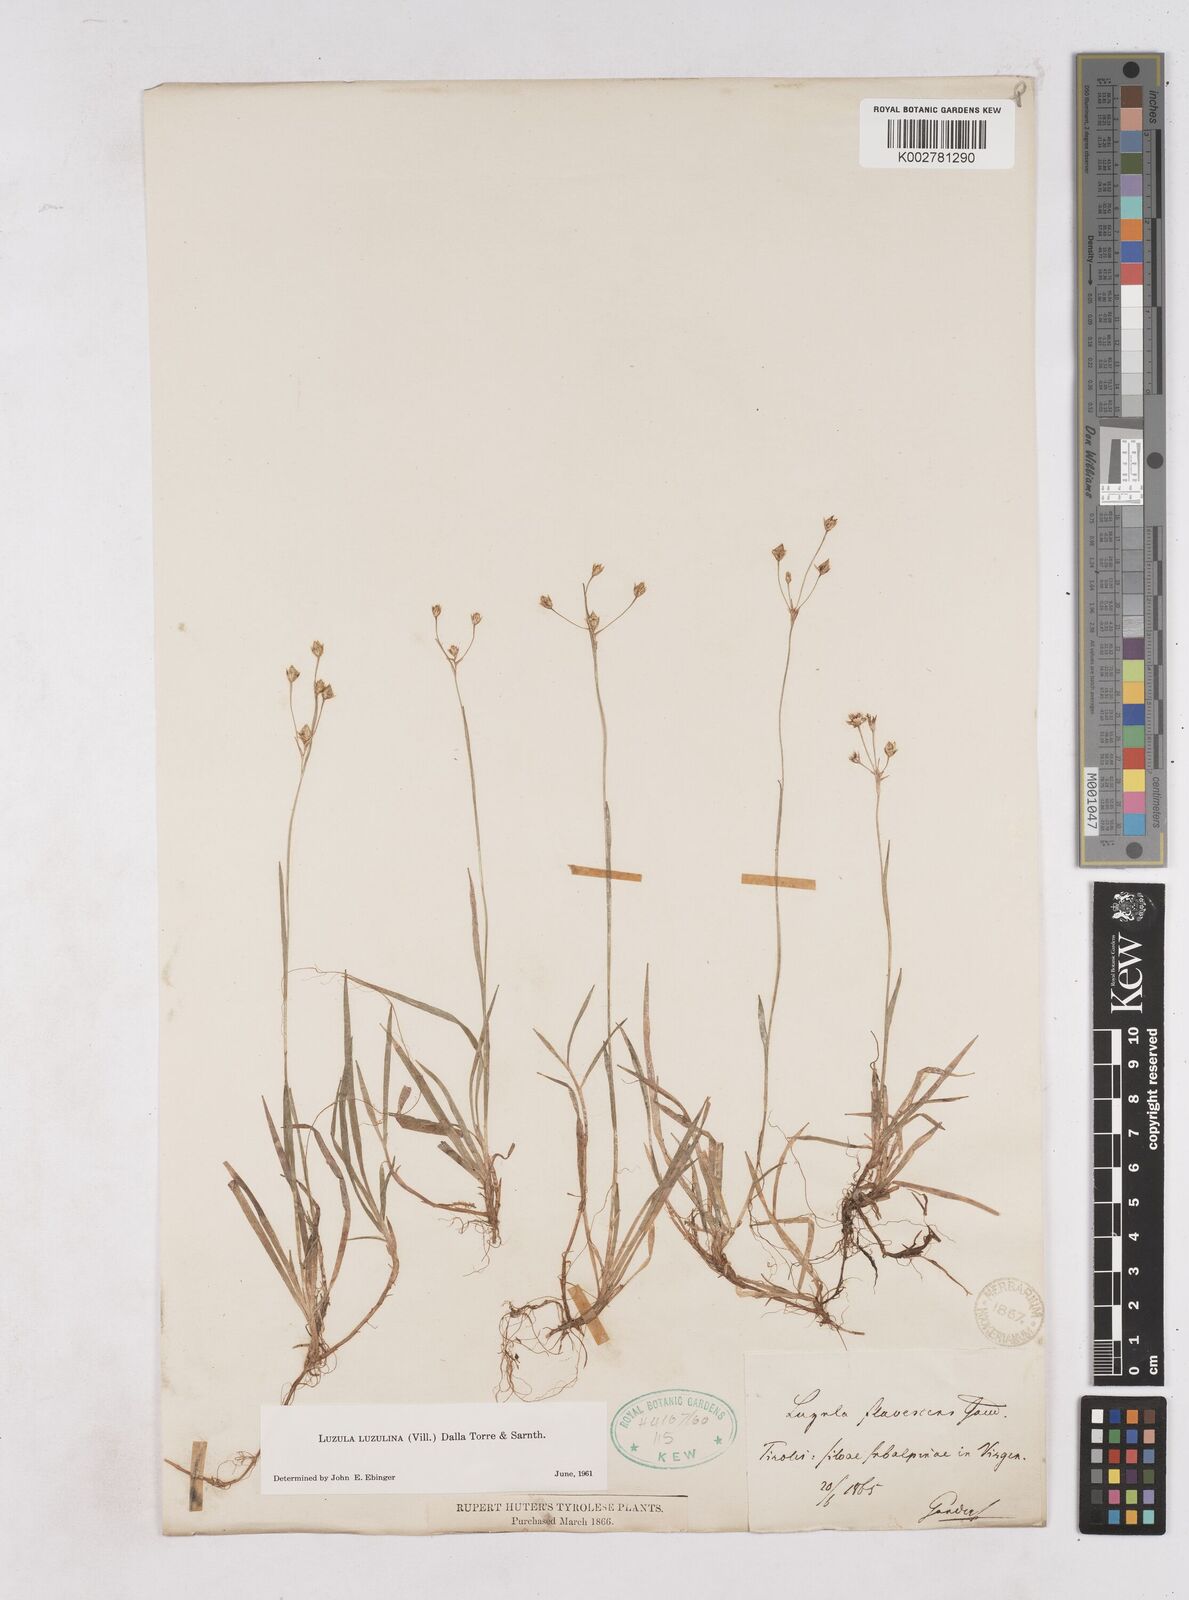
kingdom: Plantae
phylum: Tracheophyta
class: Liliopsida
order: Poales
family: Juncaceae
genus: Luzula
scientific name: Luzula luzulina
